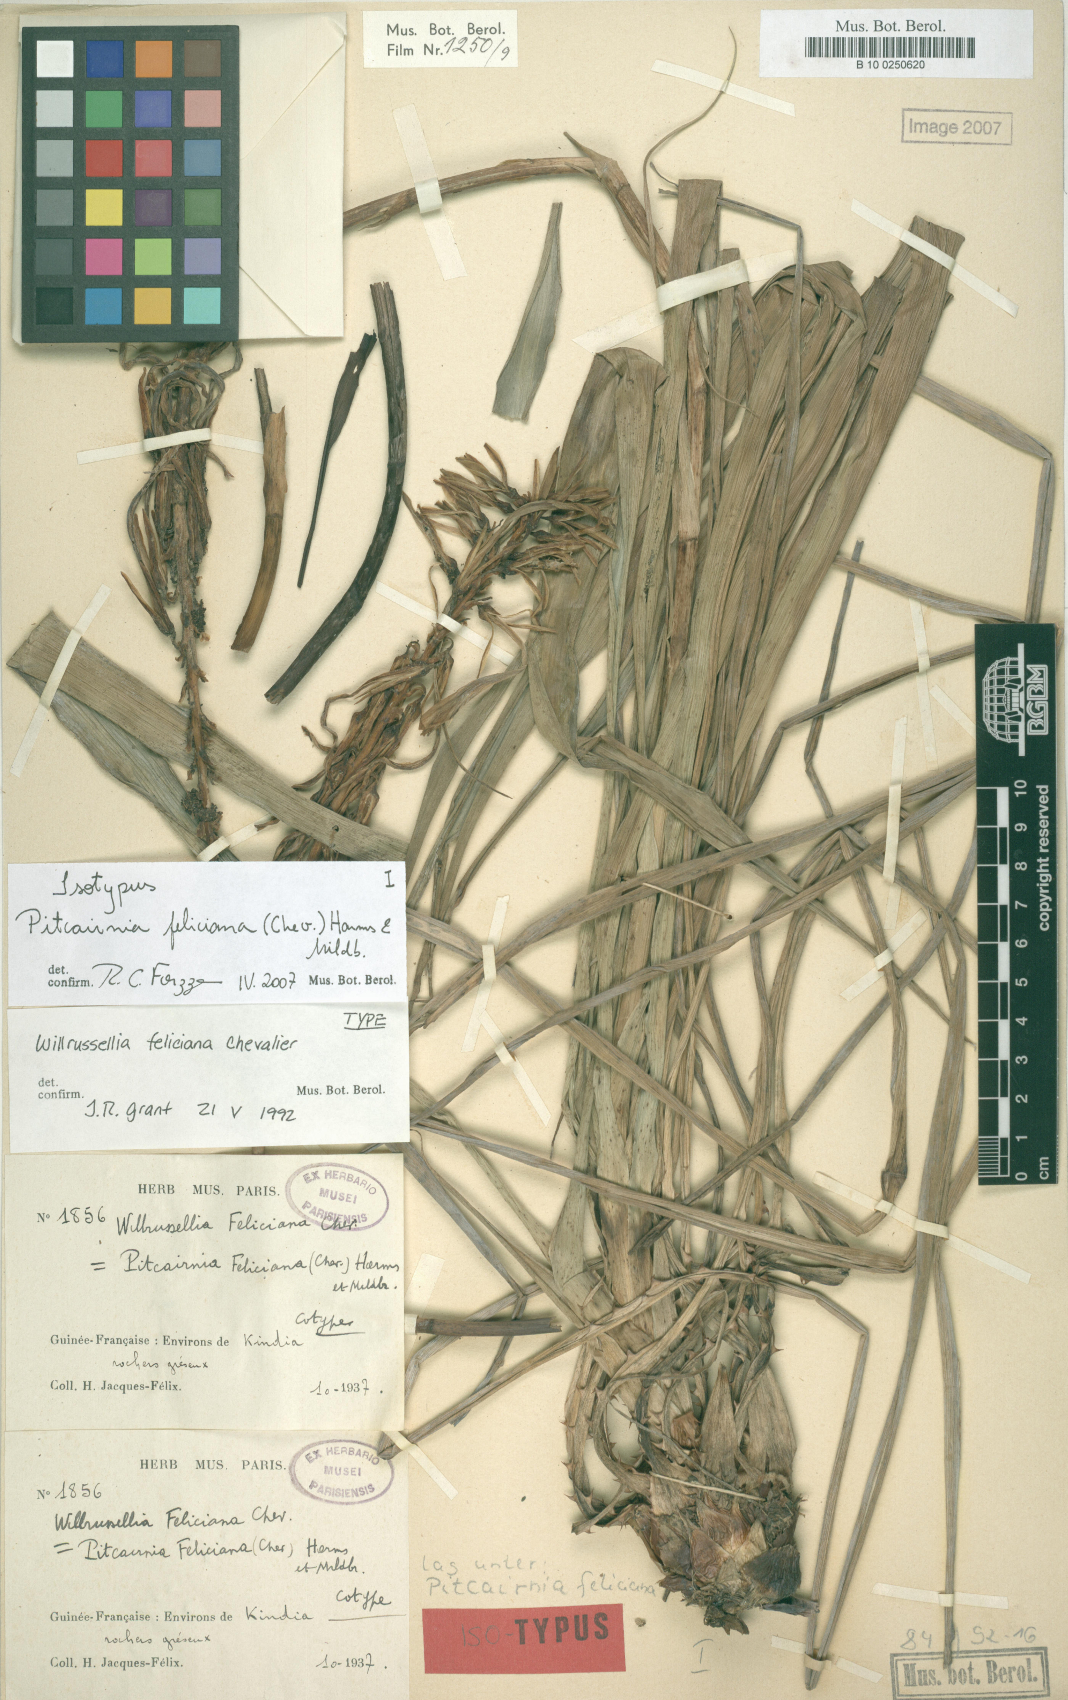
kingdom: Plantae
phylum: Tracheophyta
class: Liliopsida
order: Poales
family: Bromeliaceae
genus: Pitcairnia
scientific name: Pitcairnia feliciana
